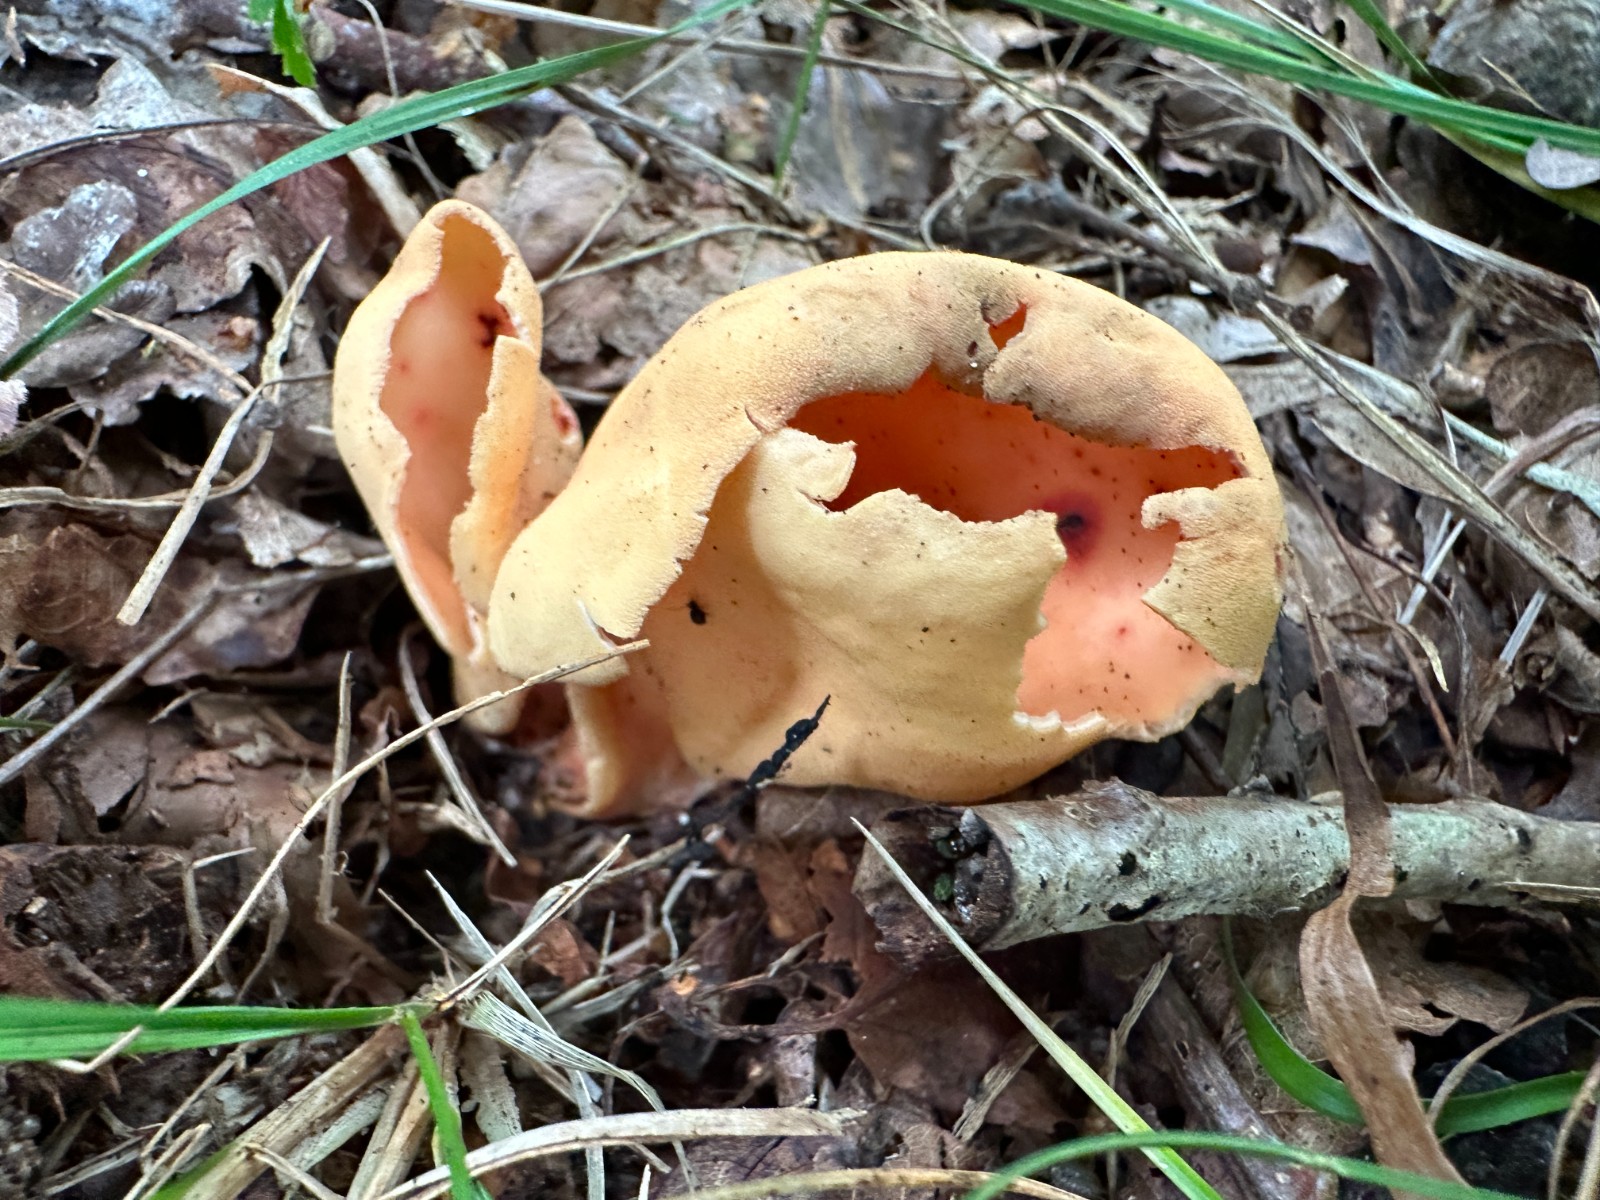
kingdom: Fungi
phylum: Ascomycota
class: Pezizomycetes
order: Pezizales
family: Otideaceae
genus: Otidea
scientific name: Otidea onotica
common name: æsel-ørebæger
